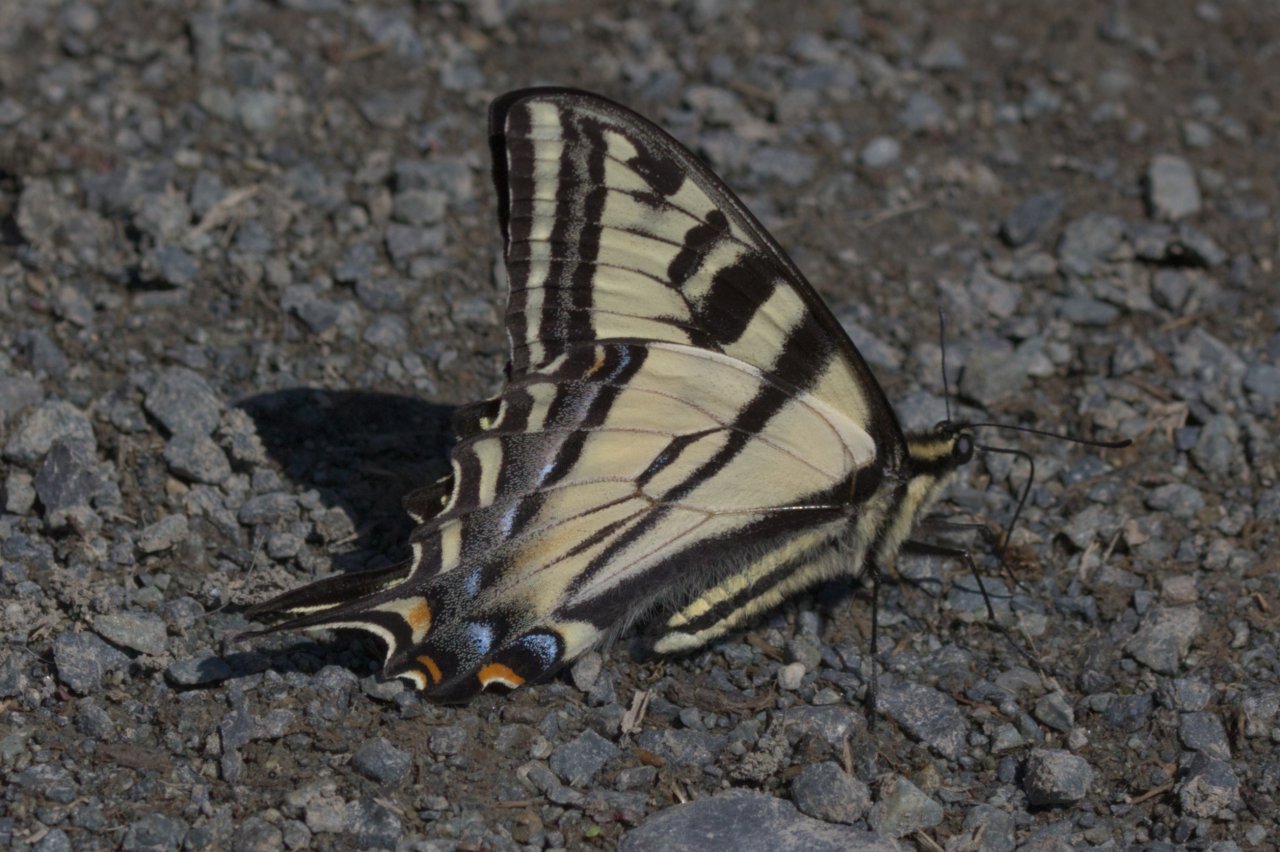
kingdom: Animalia
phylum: Arthropoda
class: Insecta
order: Lepidoptera
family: Papilionidae
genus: Pterourus
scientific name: Pterourus rutulus
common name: Western Tiger Swallowtail
